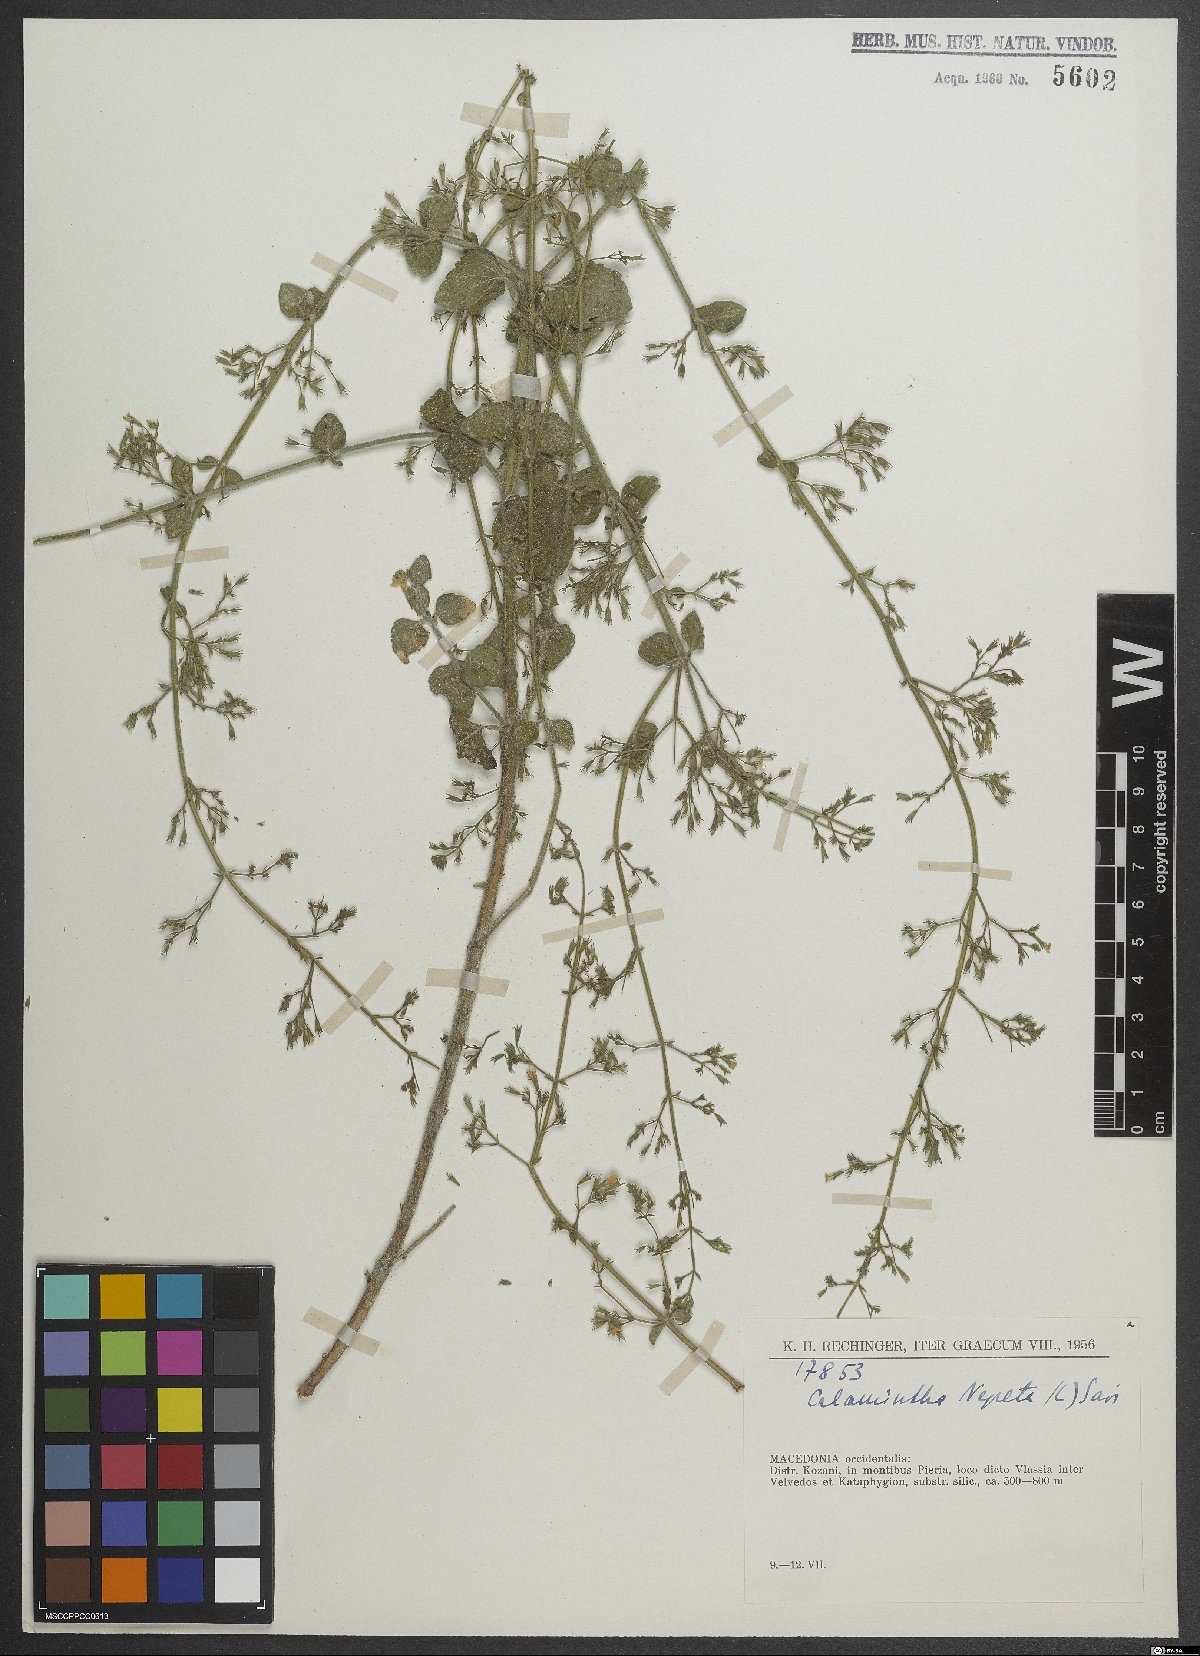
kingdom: Plantae
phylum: Tracheophyta
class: Magnoliopsida
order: Lamiales
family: Lamiaceae
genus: Clinopodium
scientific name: Clinopodium nepeta
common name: Lesser calamint
